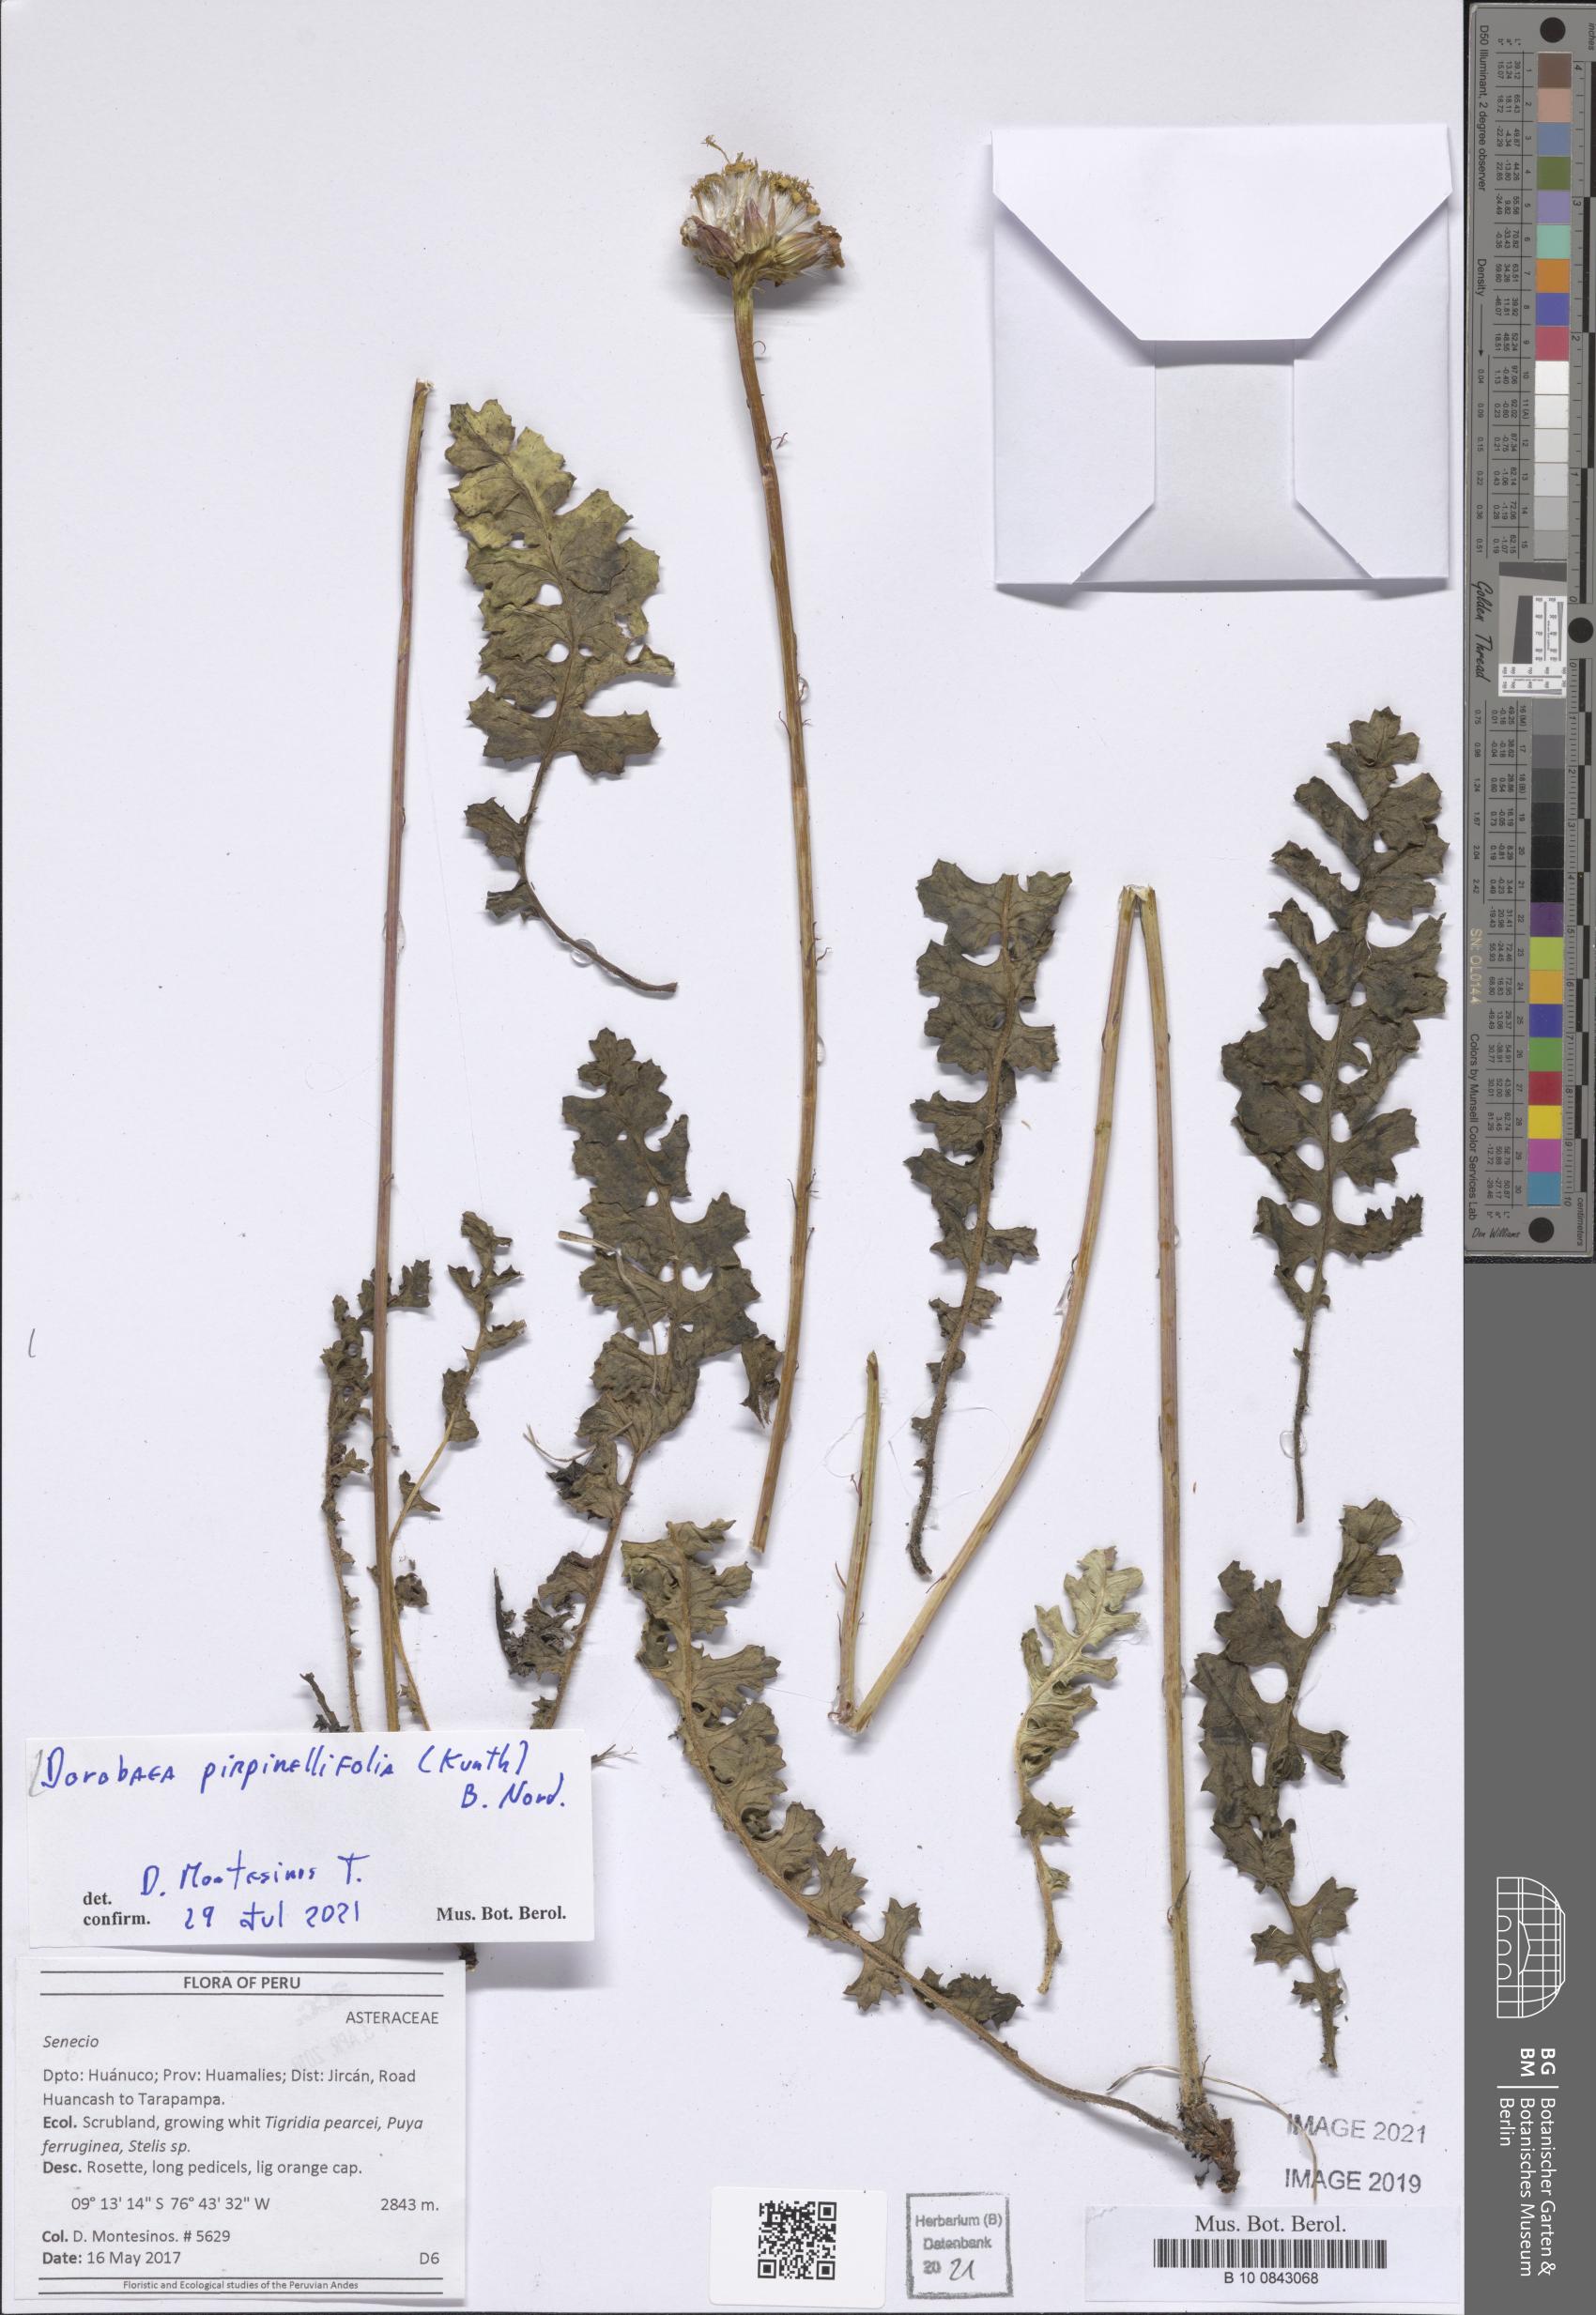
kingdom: Plantae
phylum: Tracheophyta
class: Magnoliopsida
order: Asterales
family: Asteraceae
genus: Dorobaea
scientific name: Dorobaea pimpinellifolia
